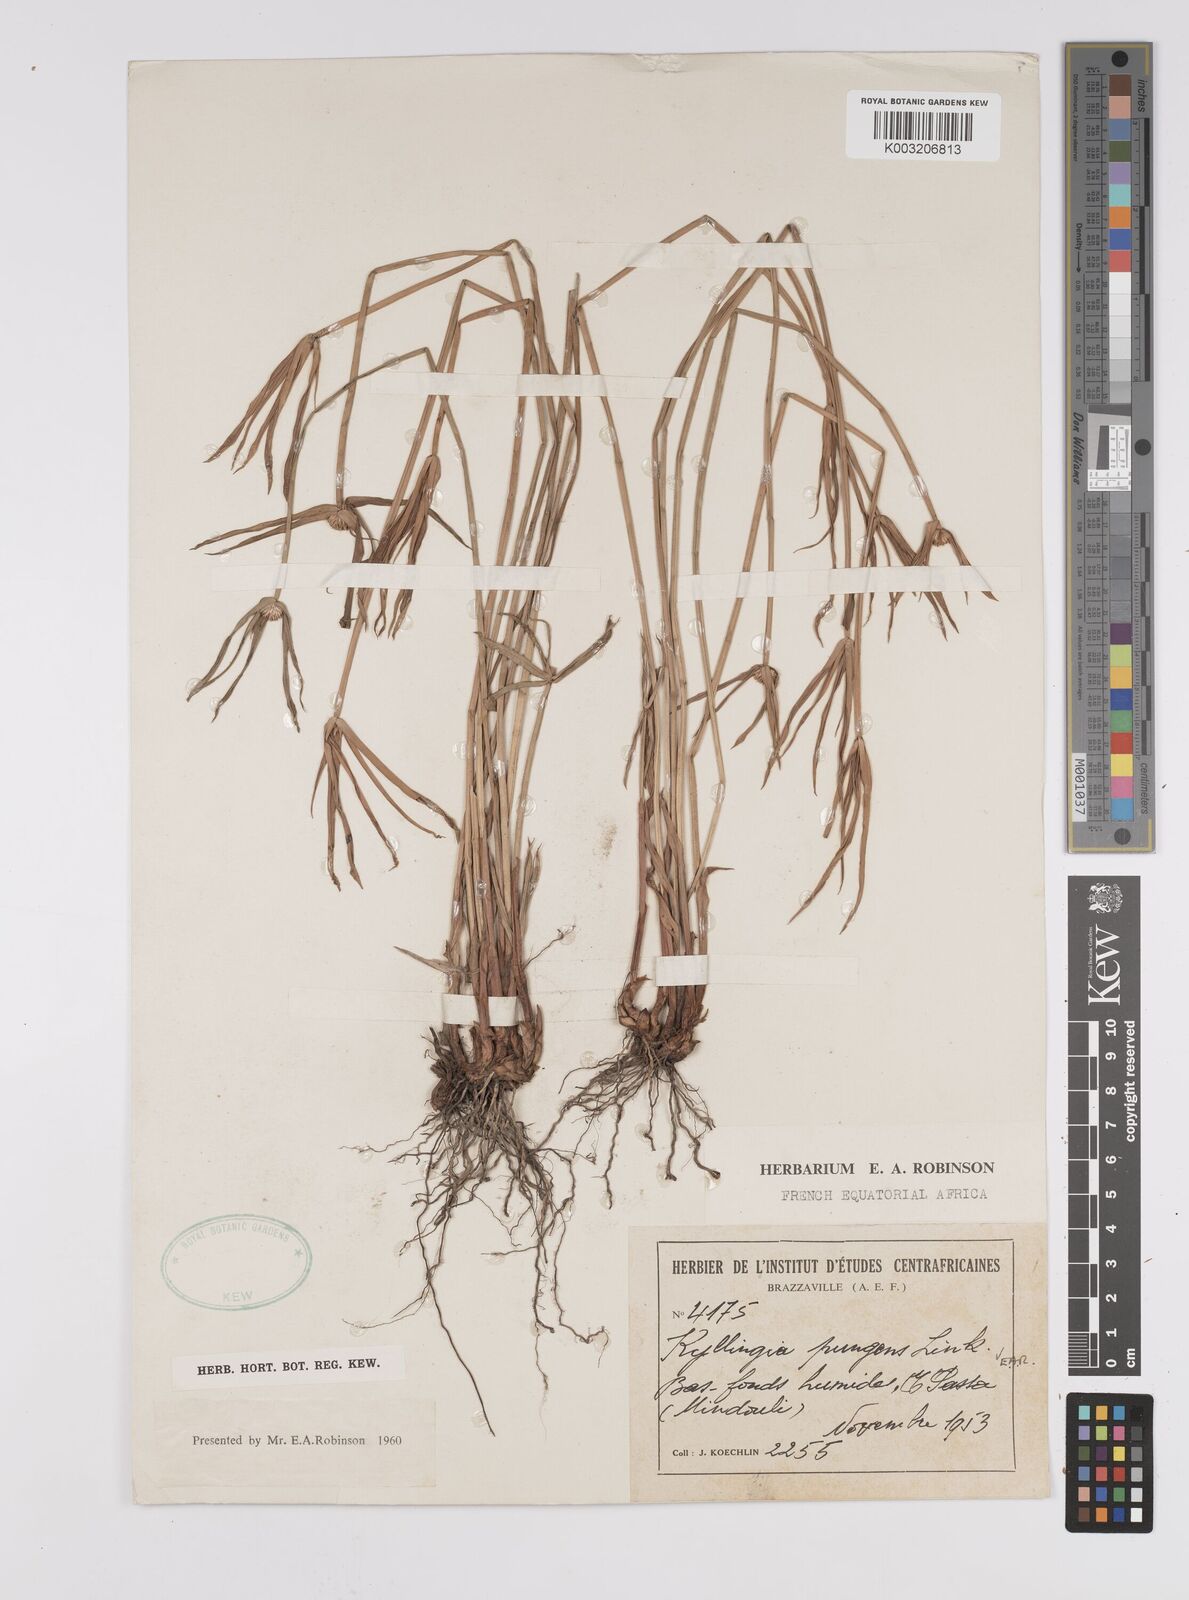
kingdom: Plantae
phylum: Tracheophyta
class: Liliopsida
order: Poales
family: Cyperaceae
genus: Cyperus
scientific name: Cyperus
